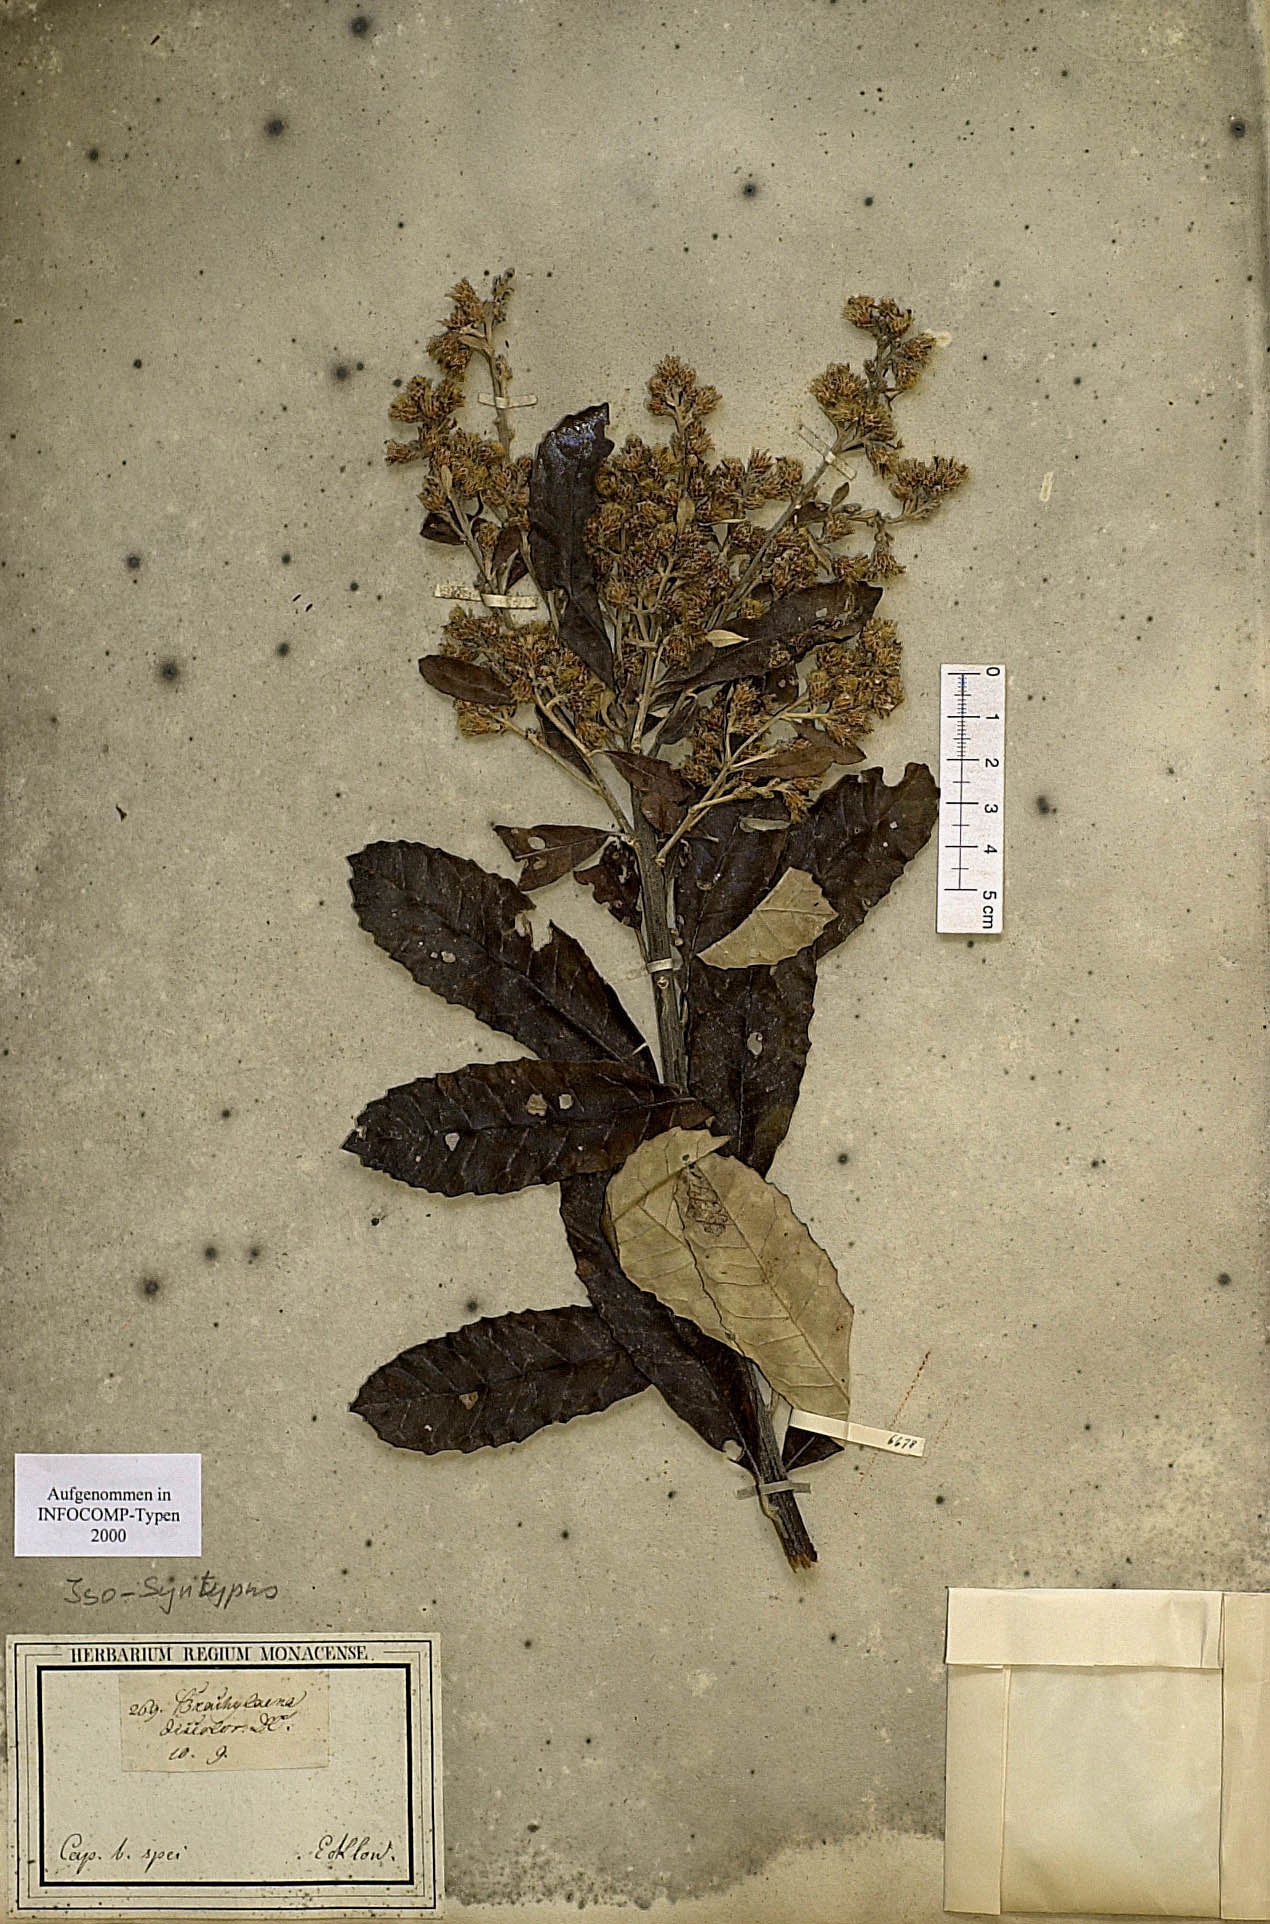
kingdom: Plantae
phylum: Tracheophyta
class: Magnoliopsida
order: Asterales
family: Asteraceae
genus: Brachylaena
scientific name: Brachylaena discolor
